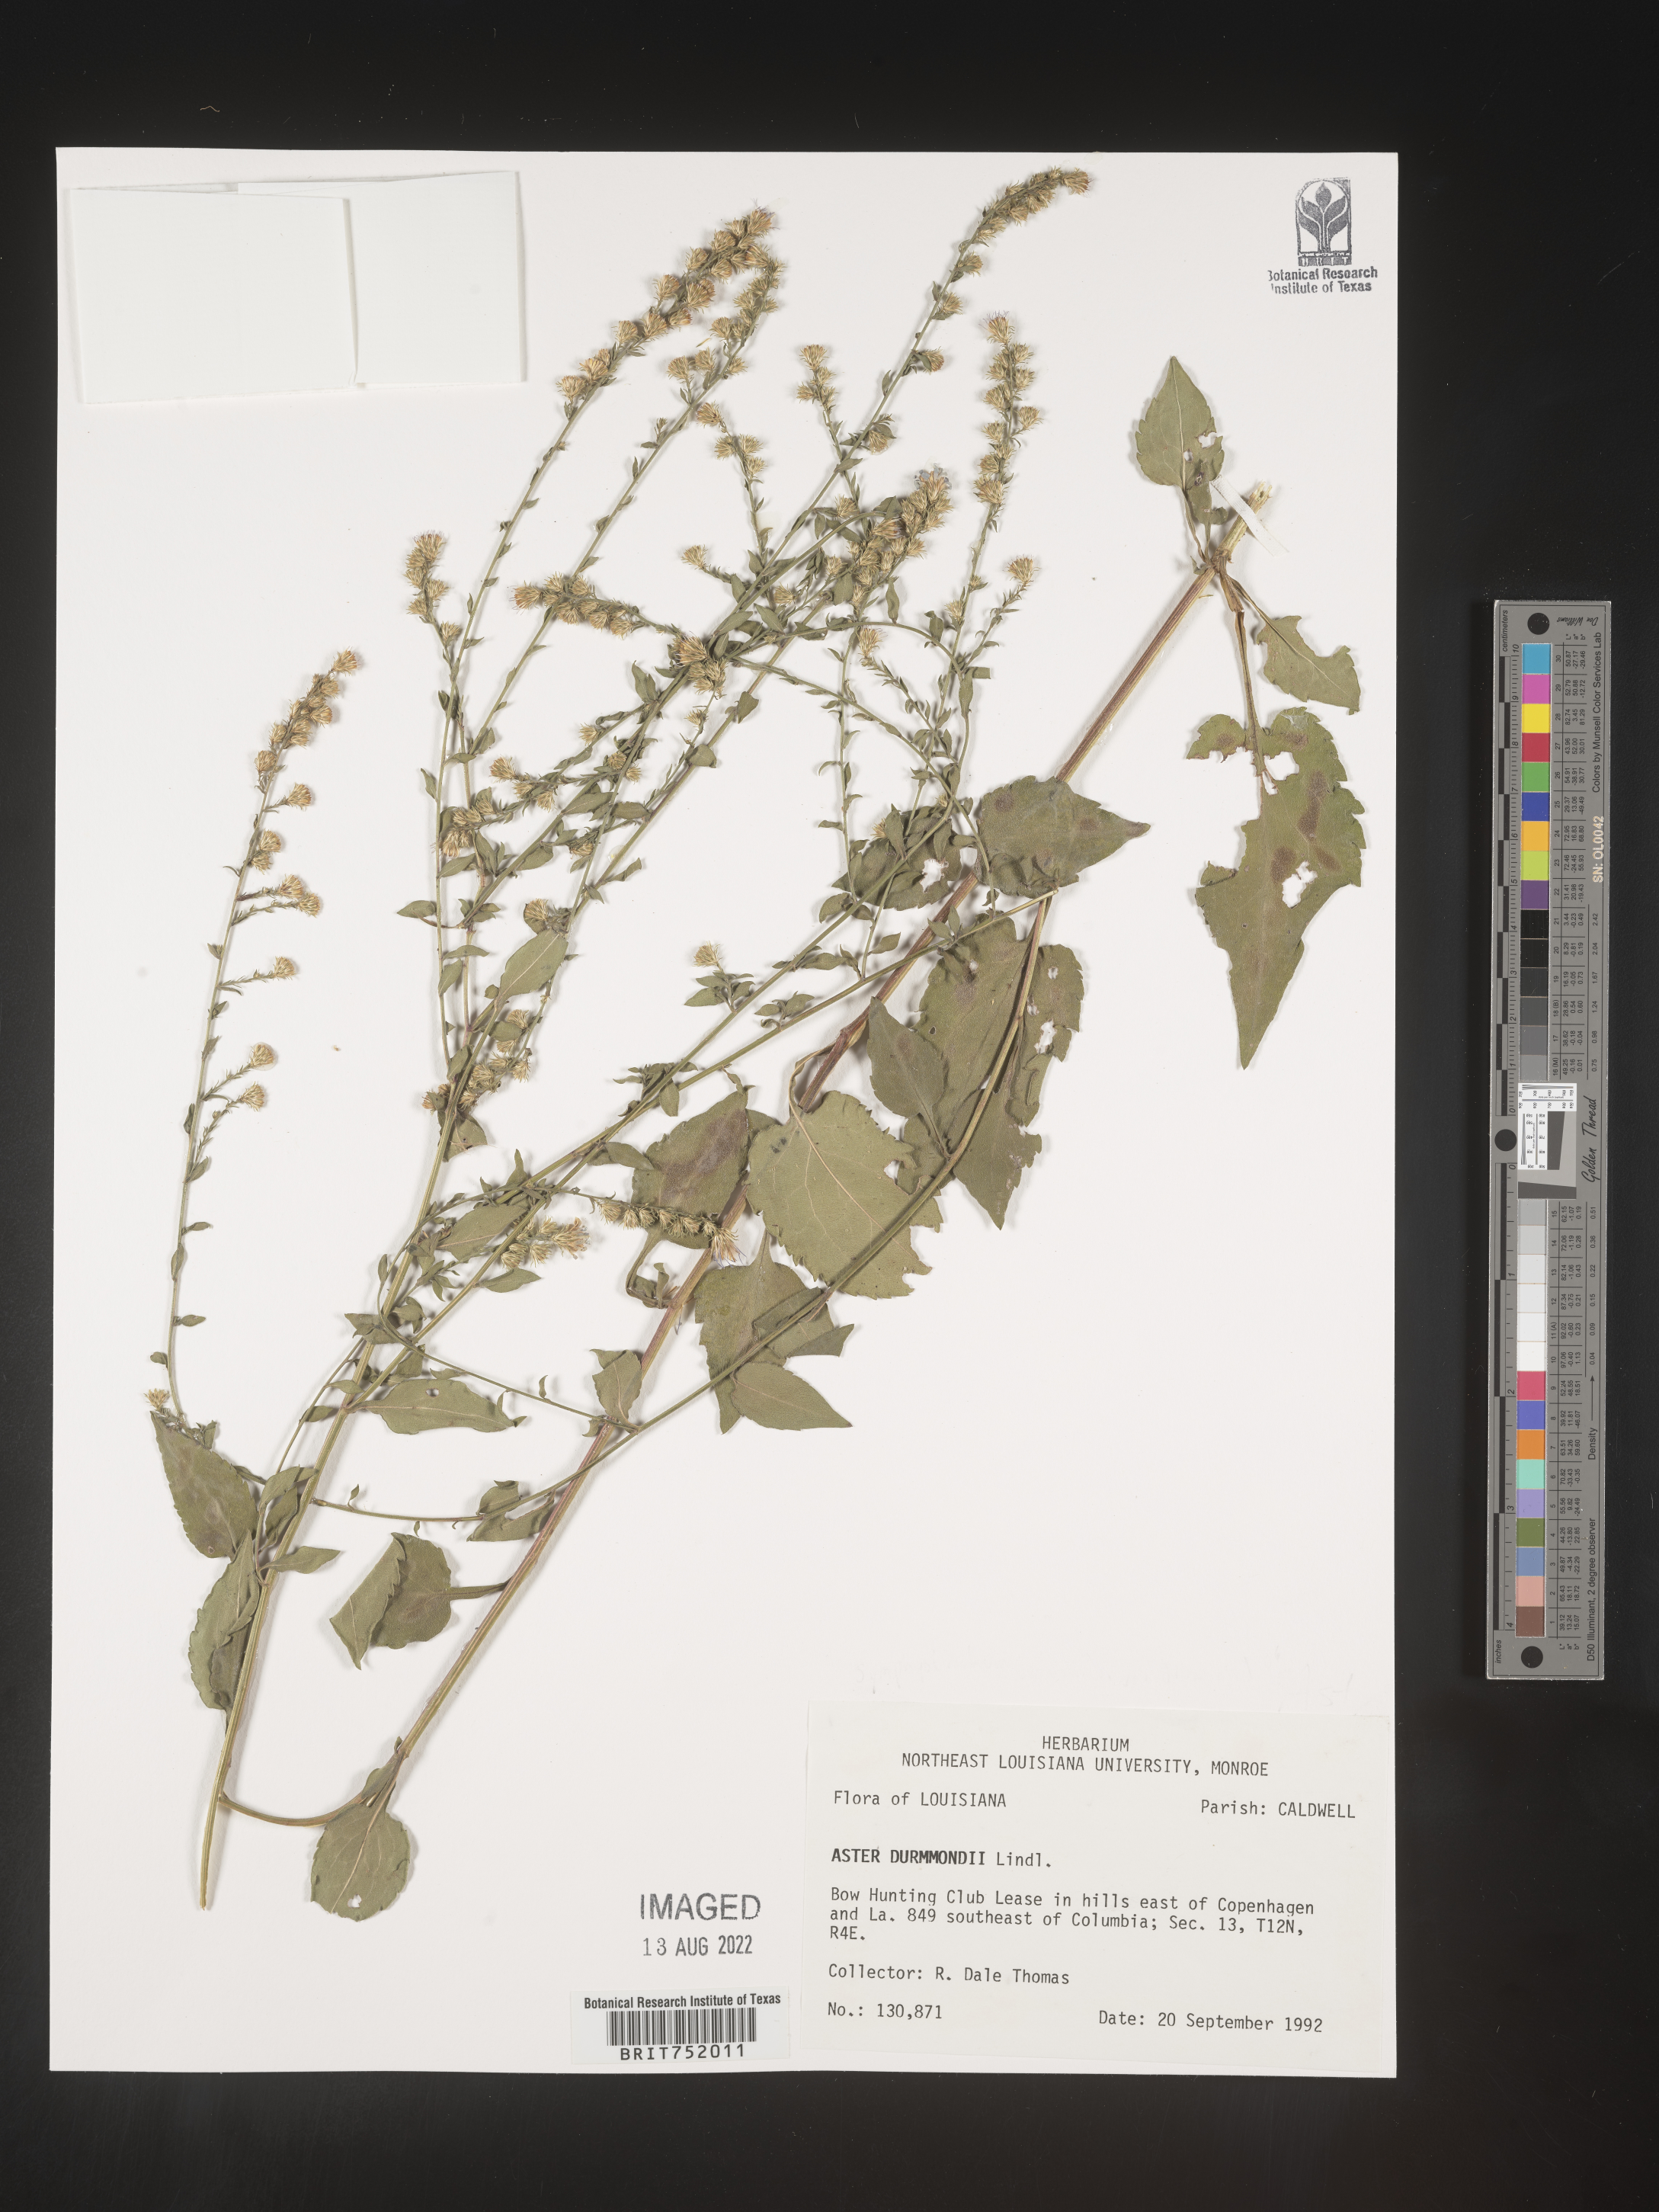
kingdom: Plantae
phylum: Tracheophyta
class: Magnoliopsida
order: Asterales
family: Asteraceae
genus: Symphyotrichum
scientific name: Symphyotrichum drummondii
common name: Drummond's aster
